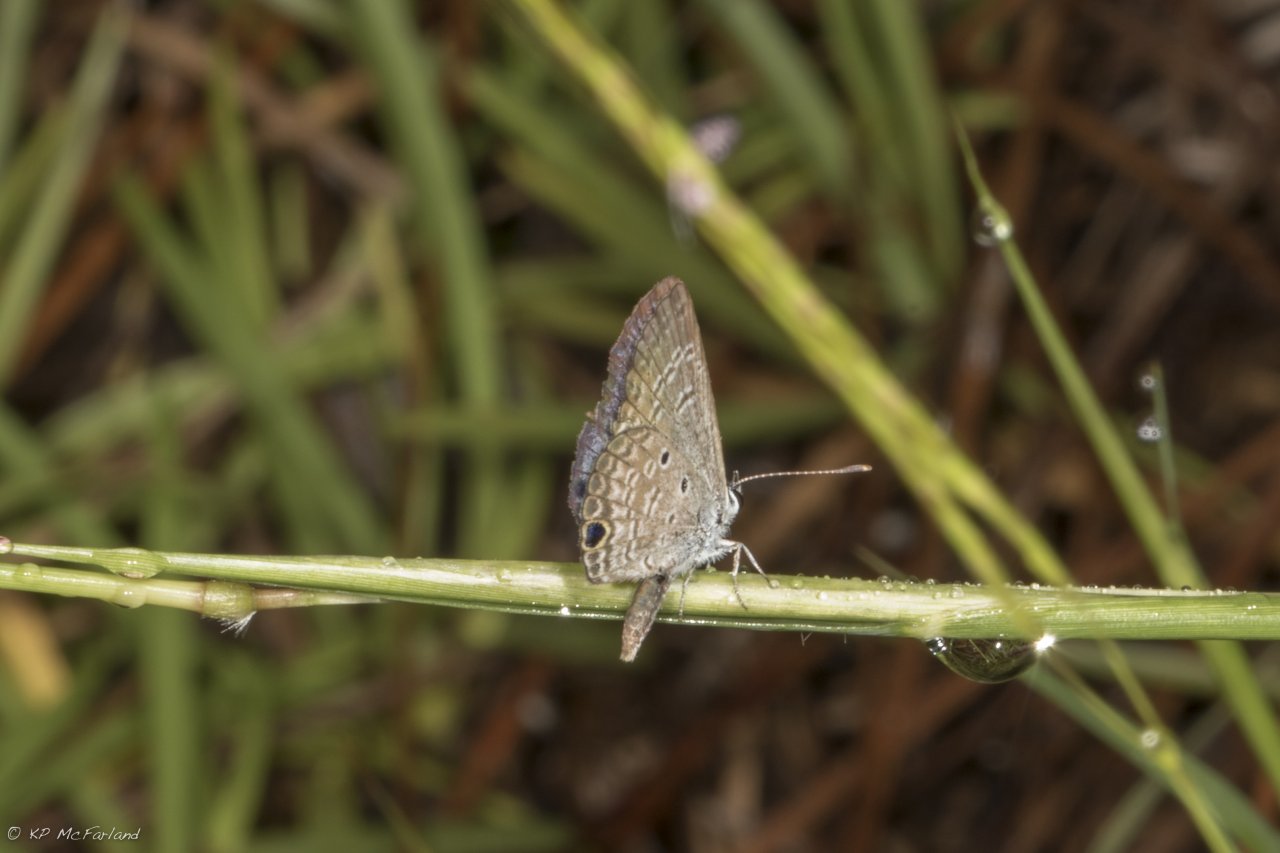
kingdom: Animalia
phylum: Arthropoda
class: Insecta
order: Lepidoptera
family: Lycaenidae
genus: Hemiargus
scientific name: Hemiargus ceraunus
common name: Ceraunus Blue
